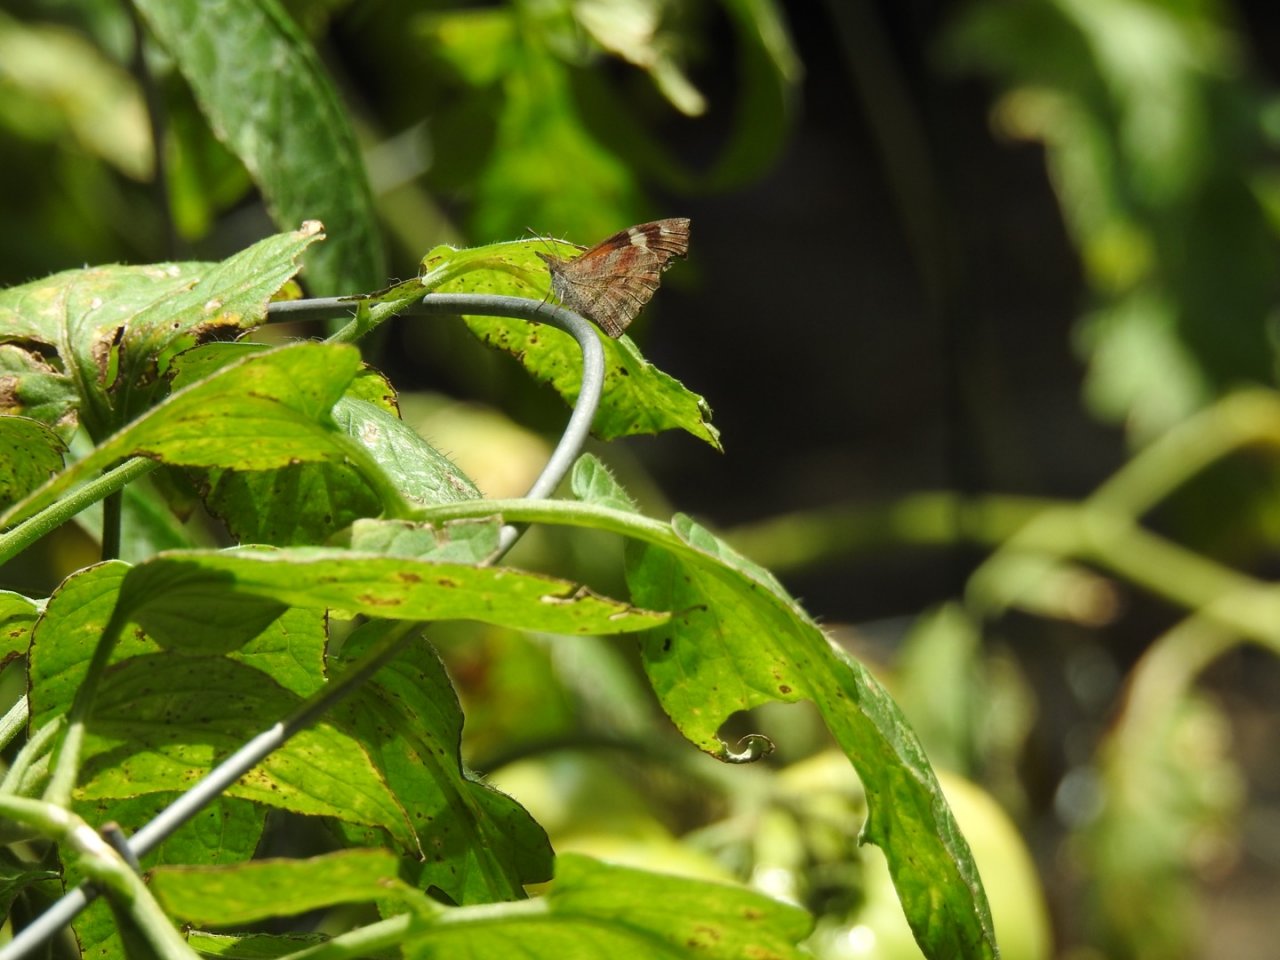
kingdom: Animalia
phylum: Arthropoda
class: Insecta
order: Lepidoptera
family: Nymphalidae
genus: Libytheana
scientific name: Libytheana carinenta
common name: American Snout
